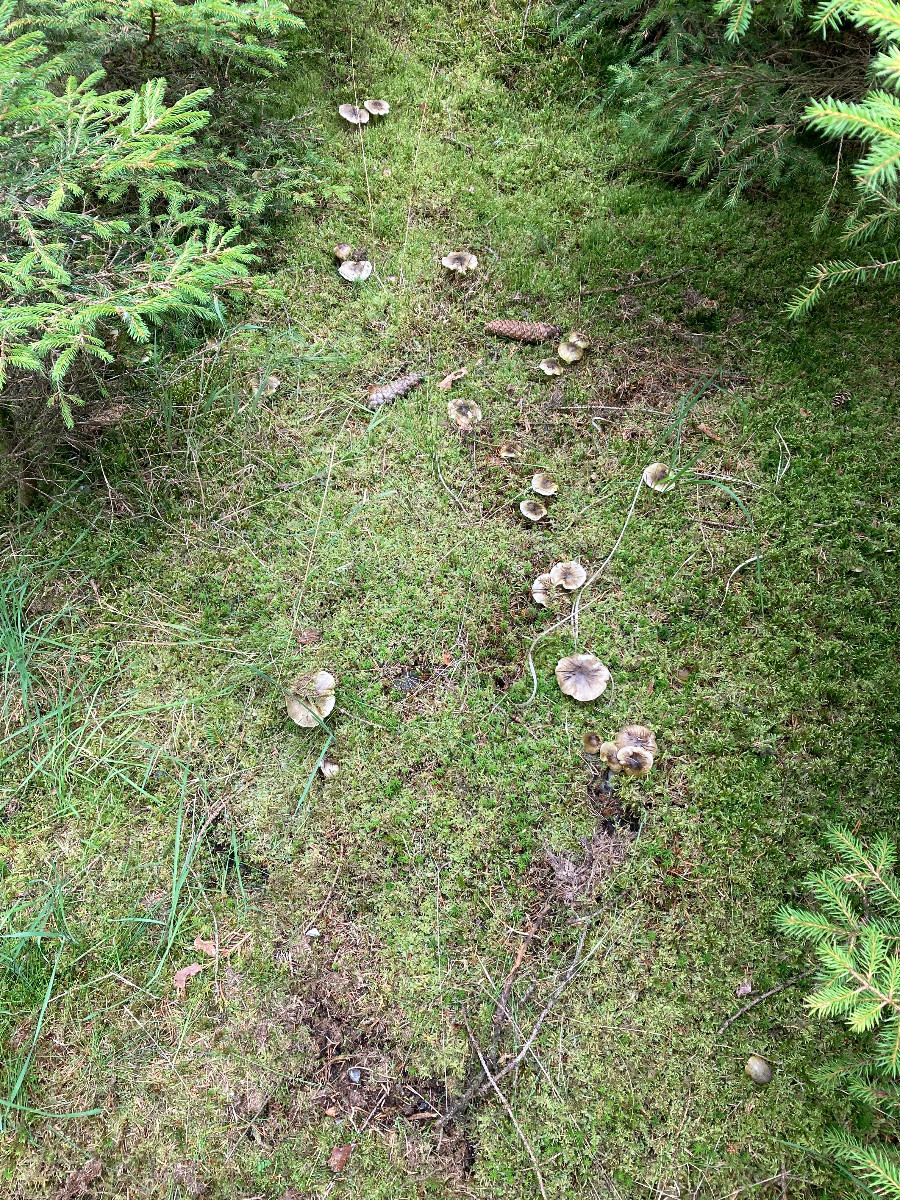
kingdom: Fungi
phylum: Basidiomycota
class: Agaricomycetes
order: Agaricales
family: Tricholomataceae
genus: Tricholoma
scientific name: Tricholoma viridilutescens
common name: sortøjet ridderhat
